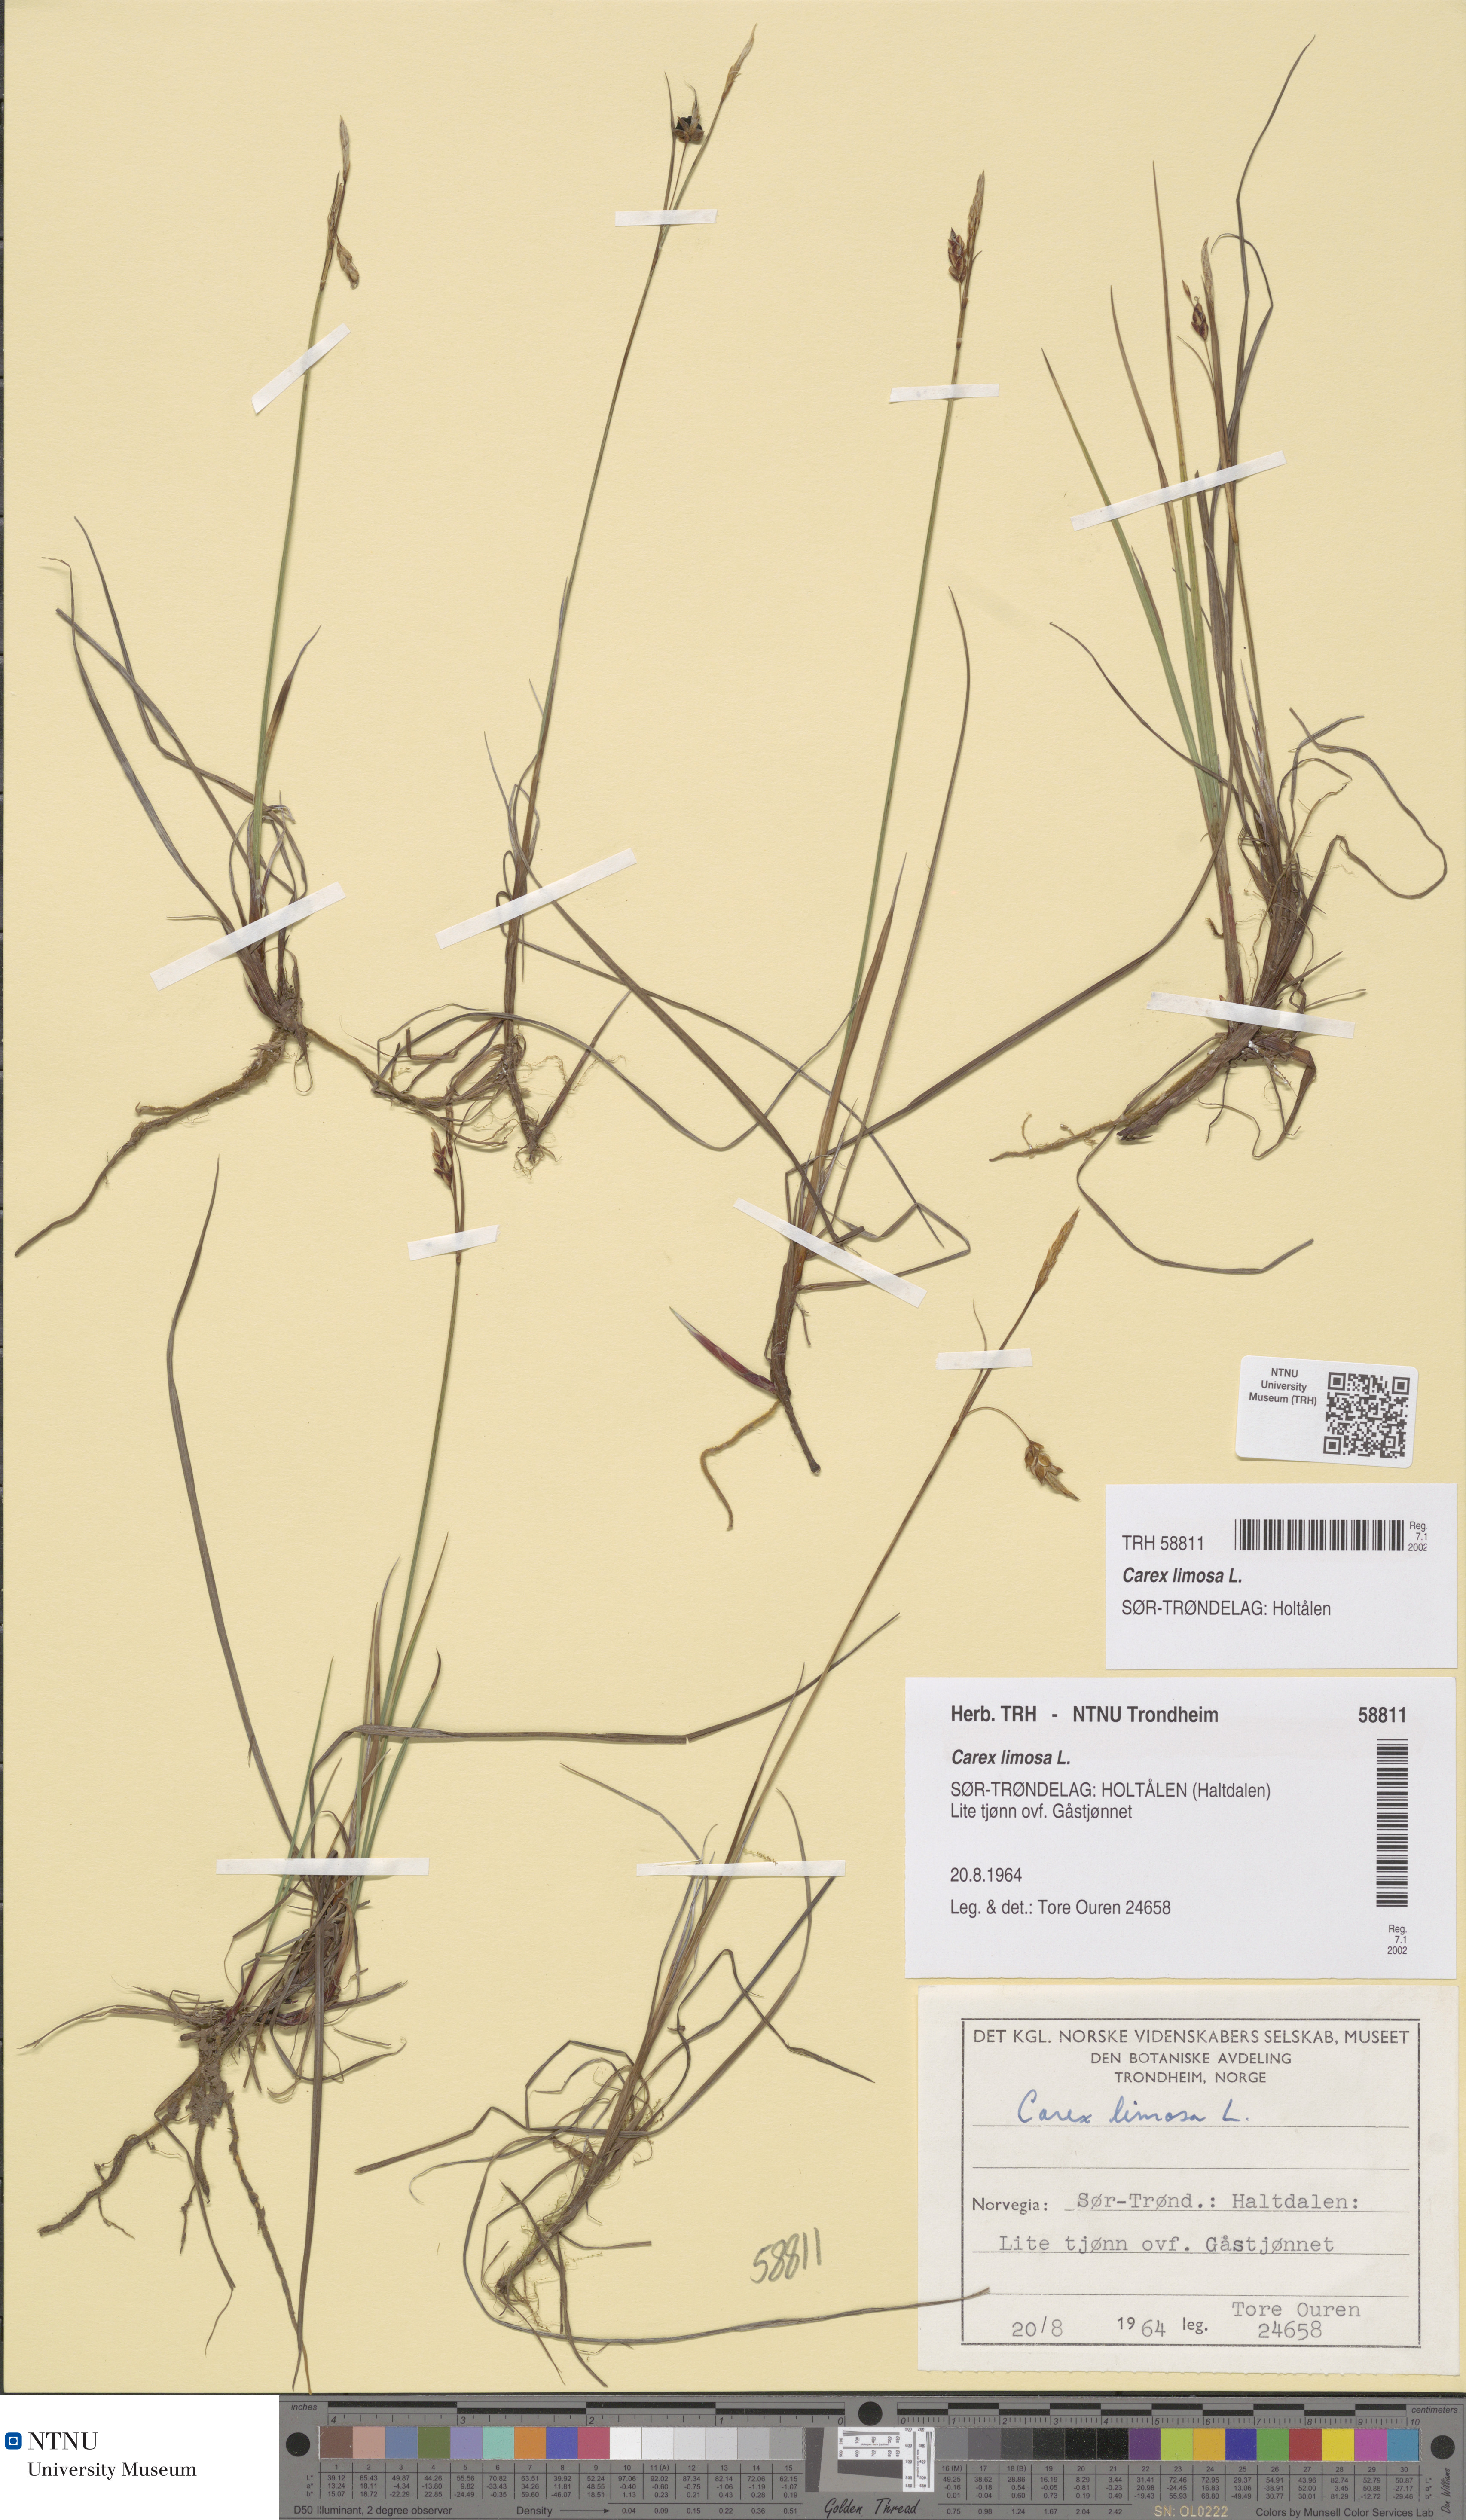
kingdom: Plantae
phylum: Tracheophyta
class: Liliopsida
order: Poales
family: Cyperaceae
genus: Carex
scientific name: Carex limosa
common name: Bog sedge
